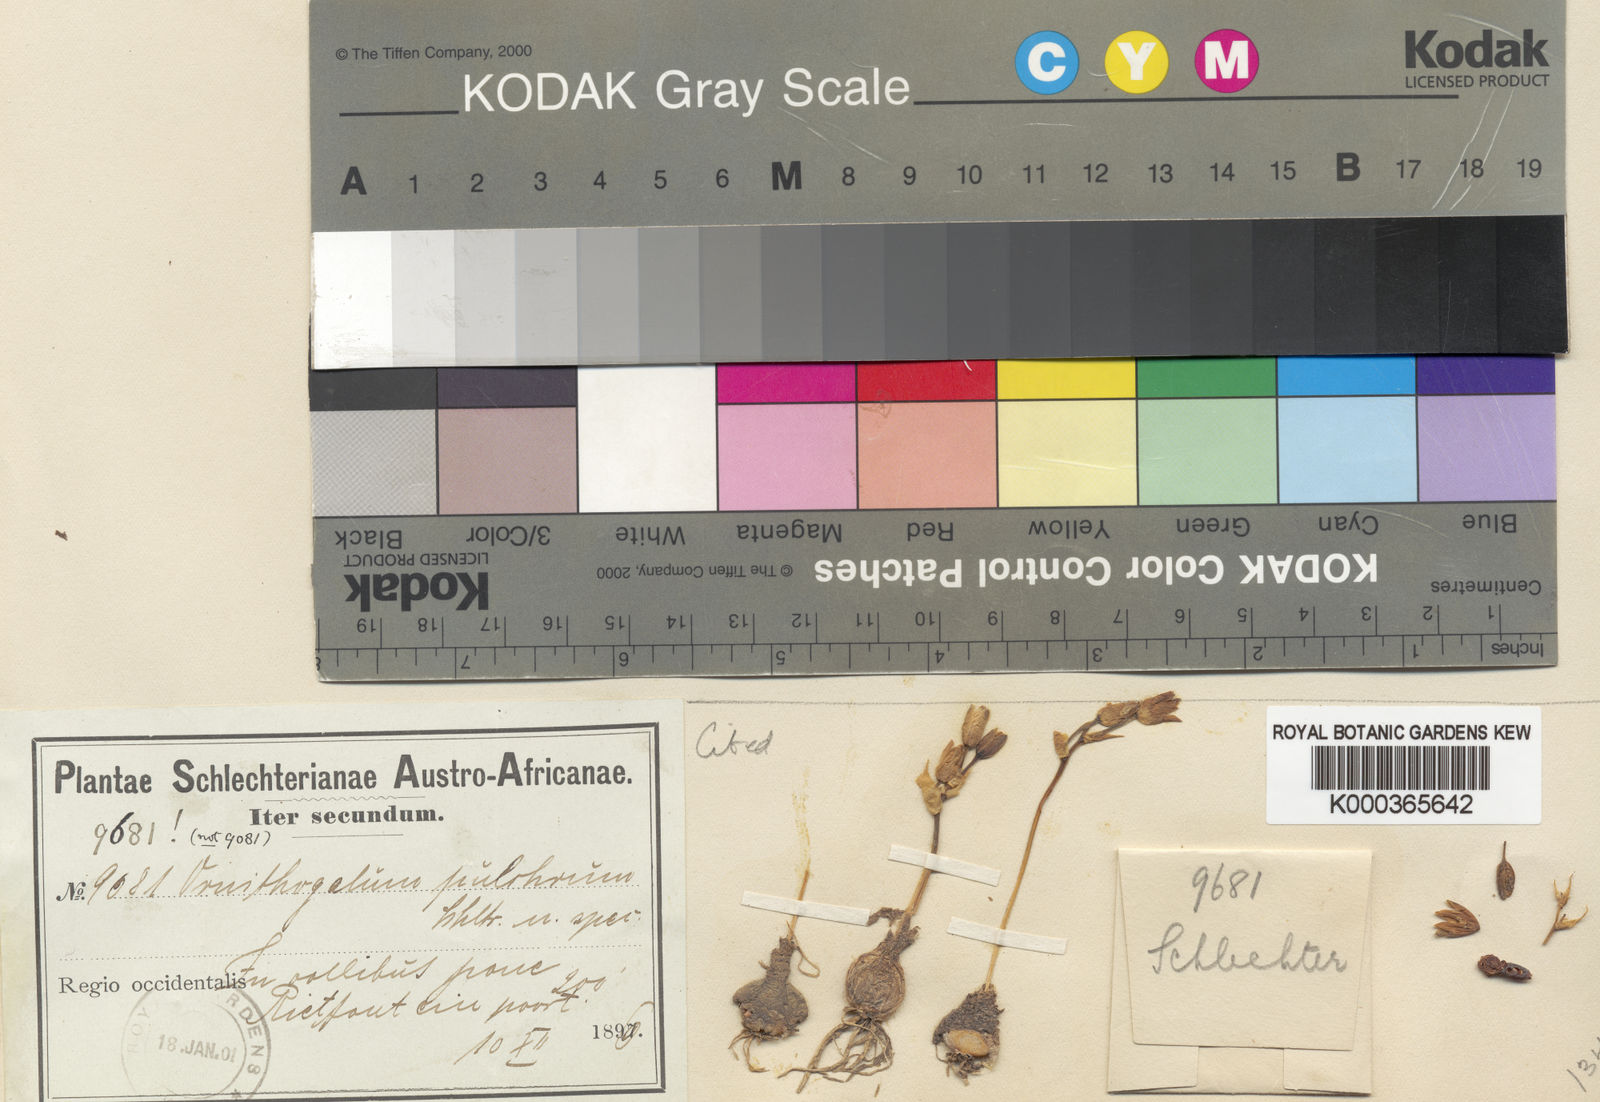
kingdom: Plantae
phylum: Tracheophyta
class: Liliopsida
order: Asparagales
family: Asparagaceae
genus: Ornithogalum
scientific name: Ornithogalum dubium
